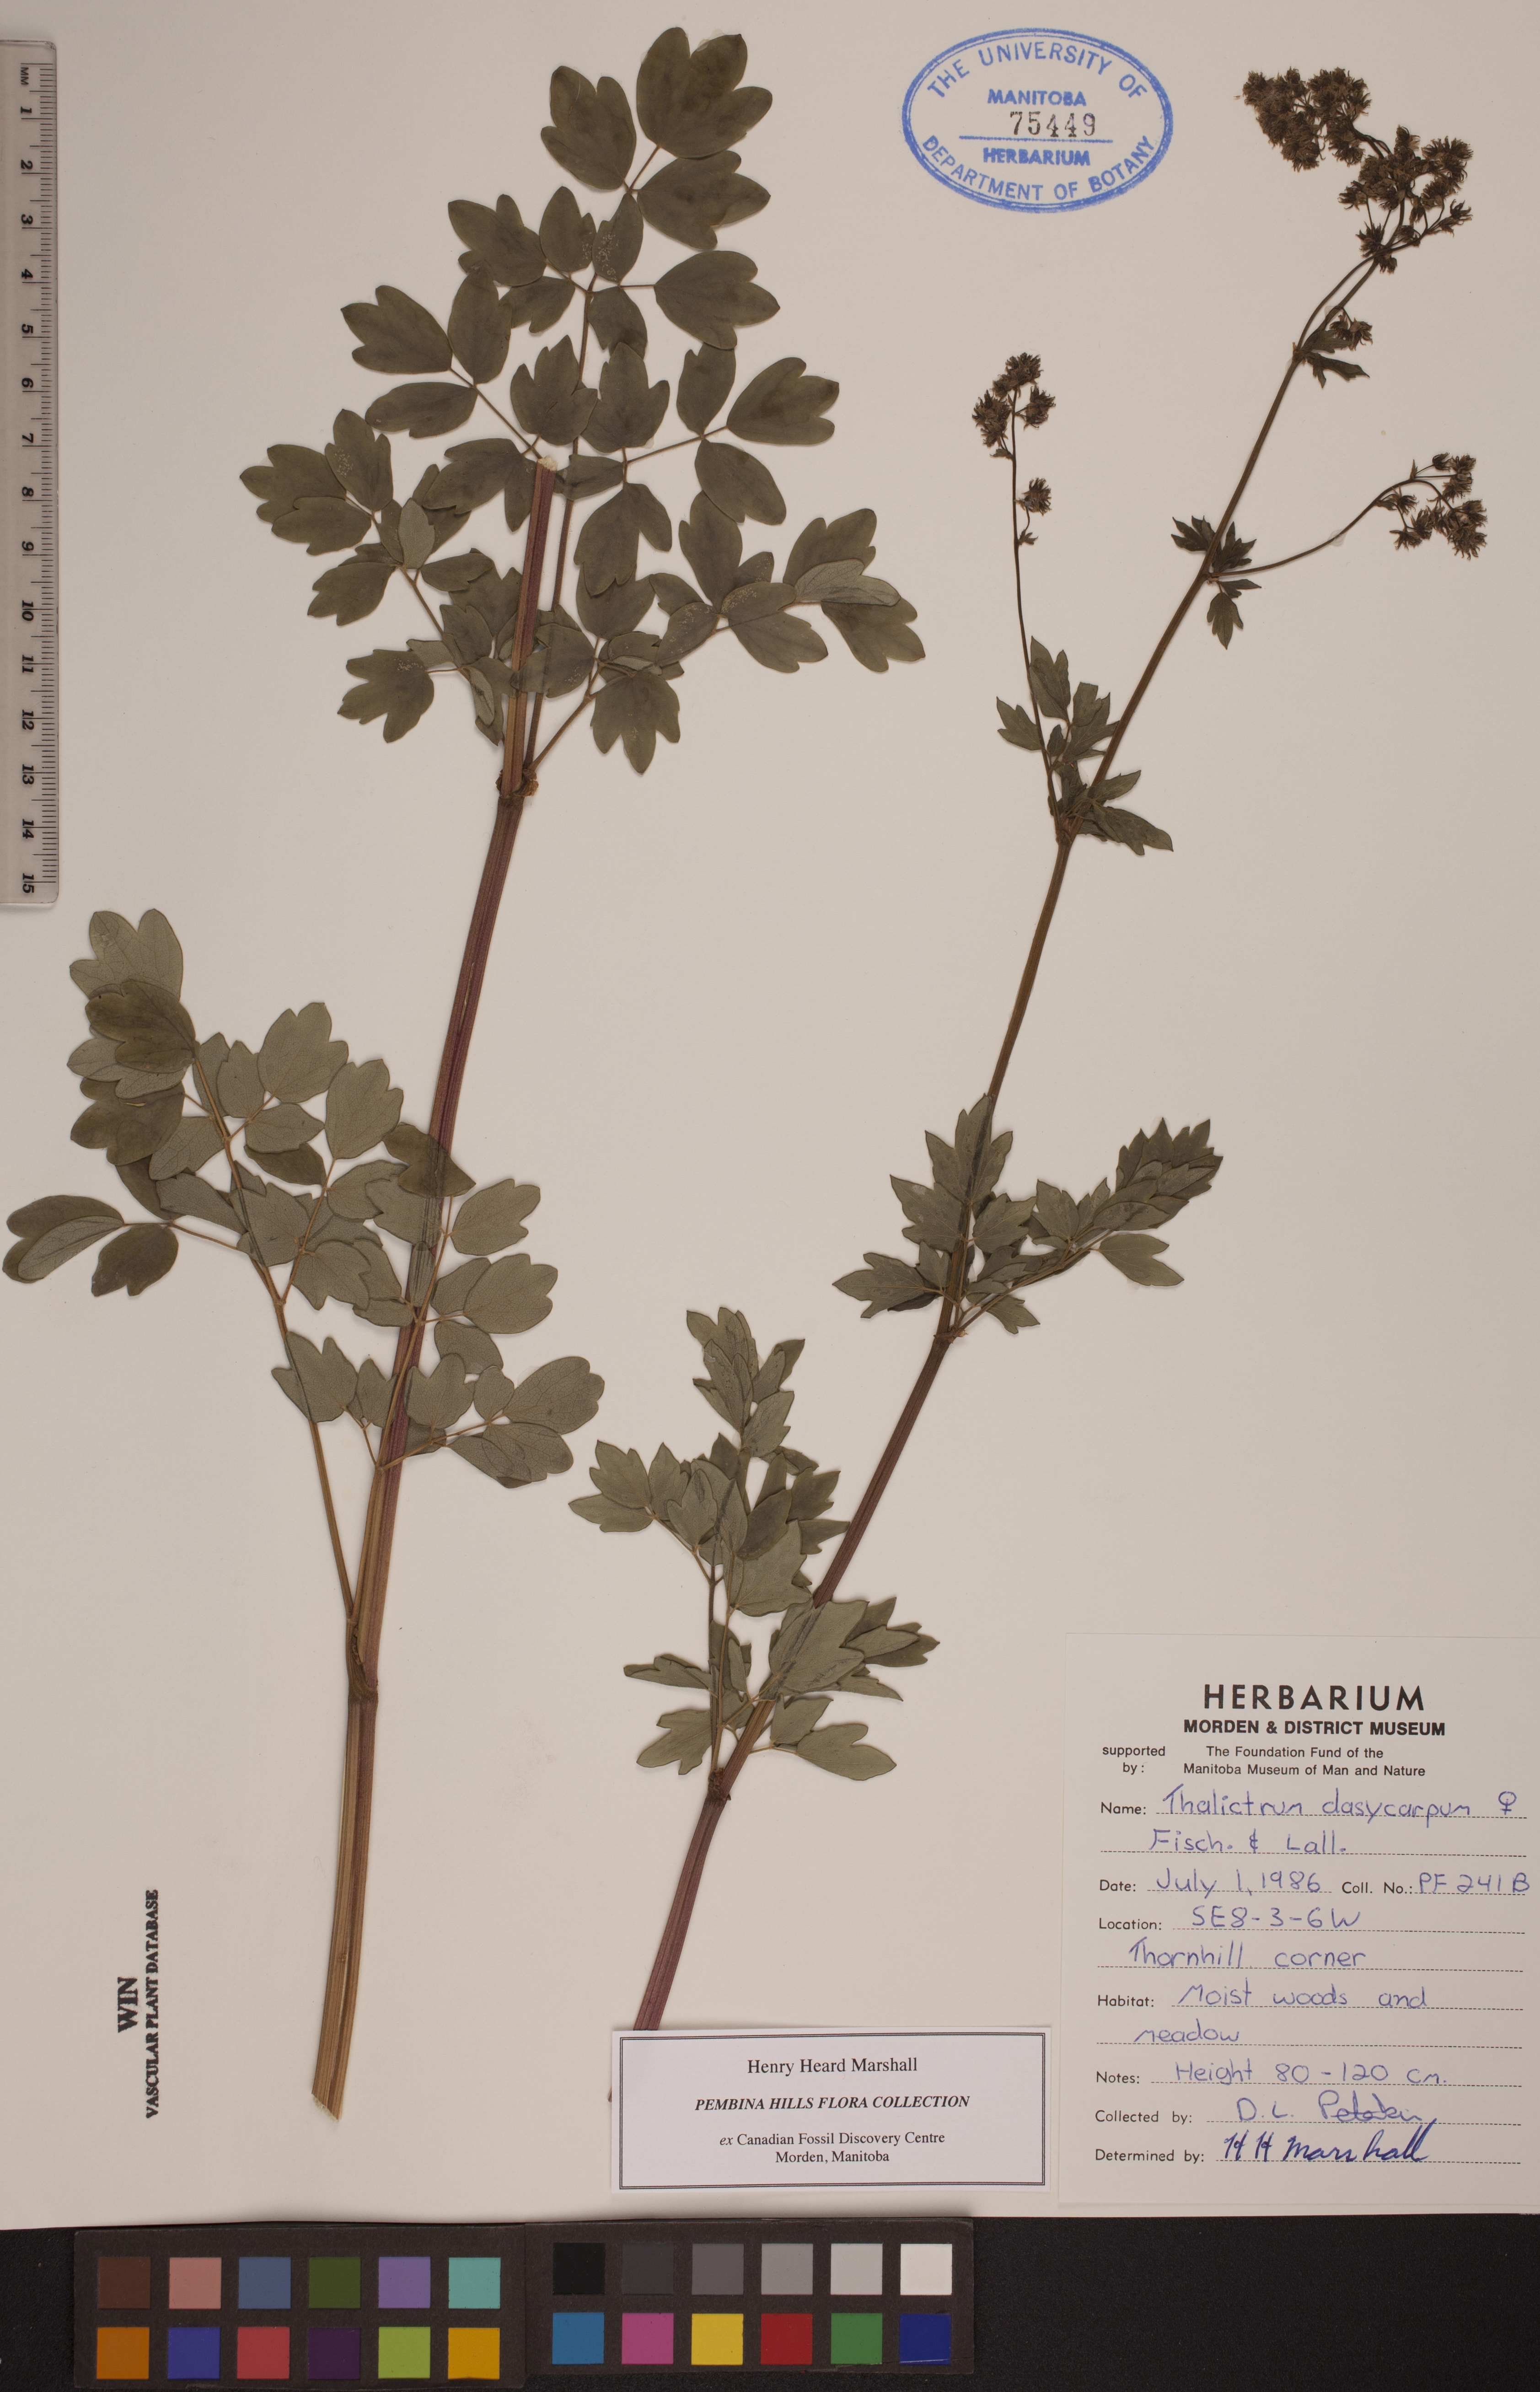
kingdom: Plantae
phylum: Tracheophyta
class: Magnoliopsida
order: Ranunculales
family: Ranunculaceae
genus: Thalictrum
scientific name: Thalictrum dasycarpum
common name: Purple meadow-rue
